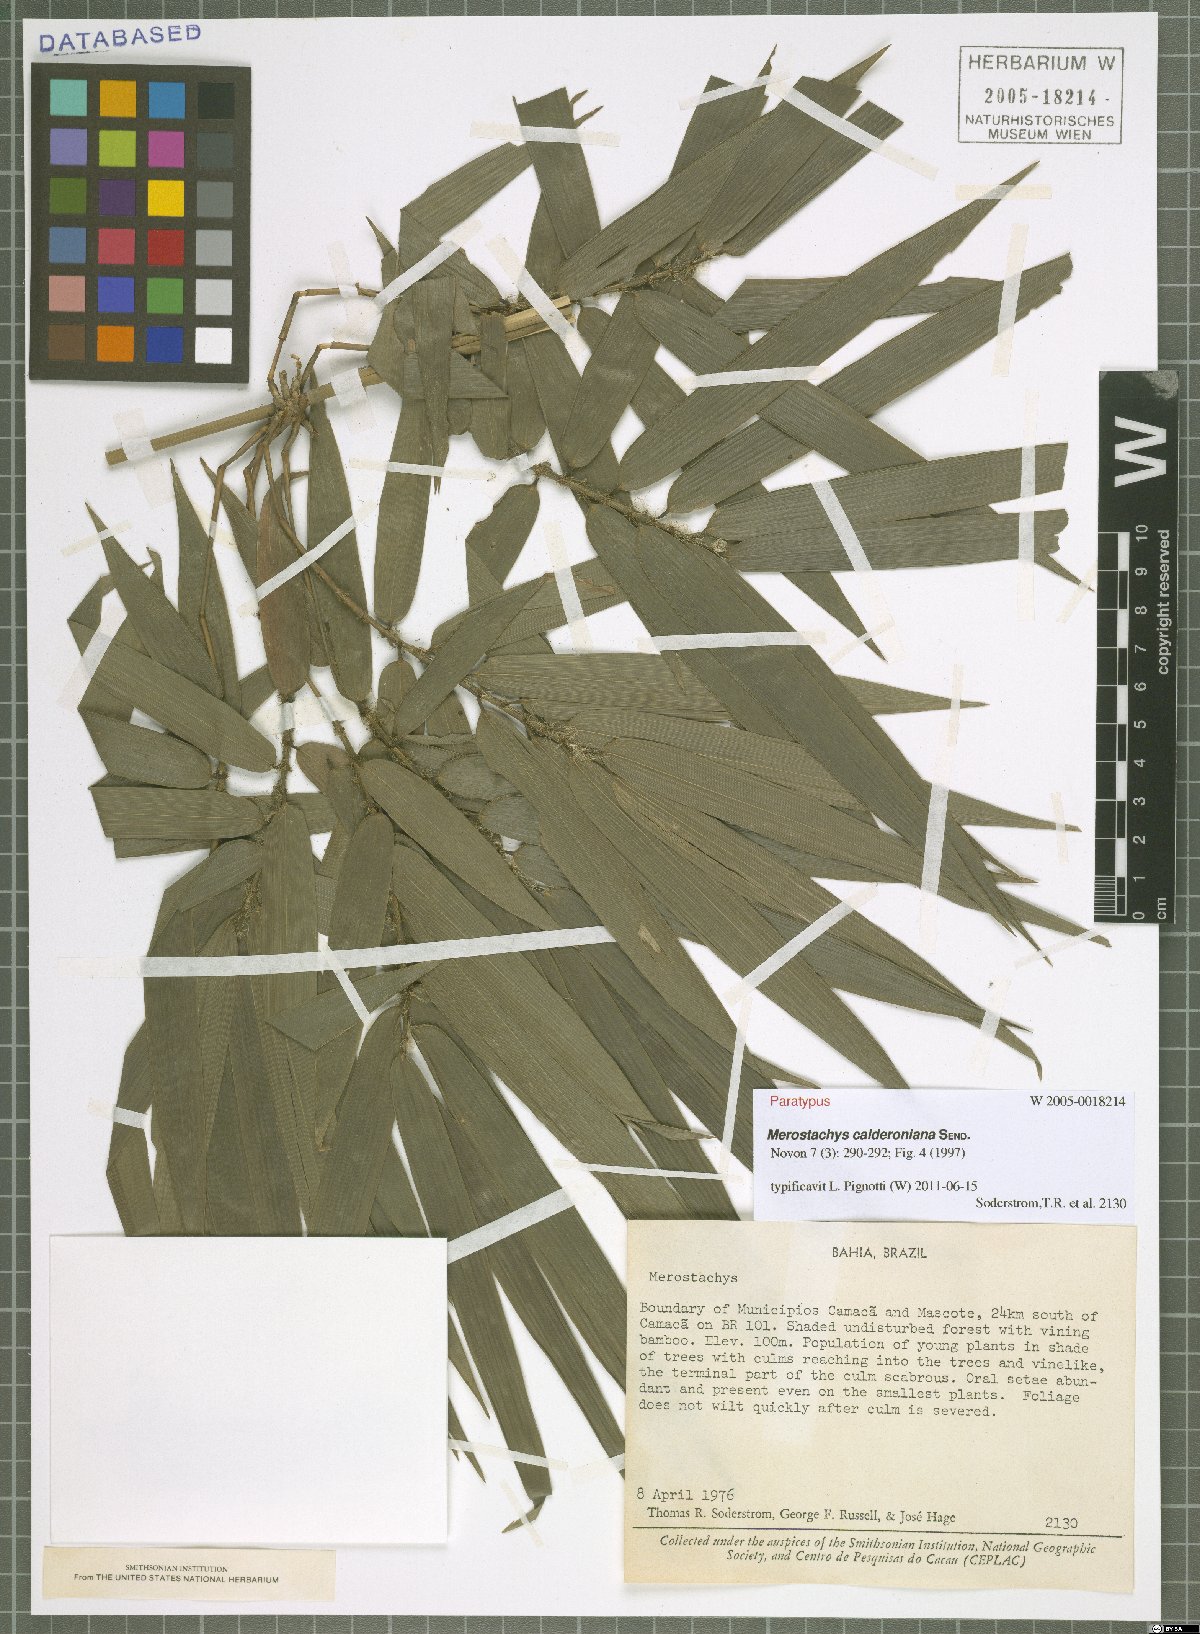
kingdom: Plantae
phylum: Tracheophyta
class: Liliopsida
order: Poales
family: Poaceae
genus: Merostachys
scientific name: Merostachys calderoniana
